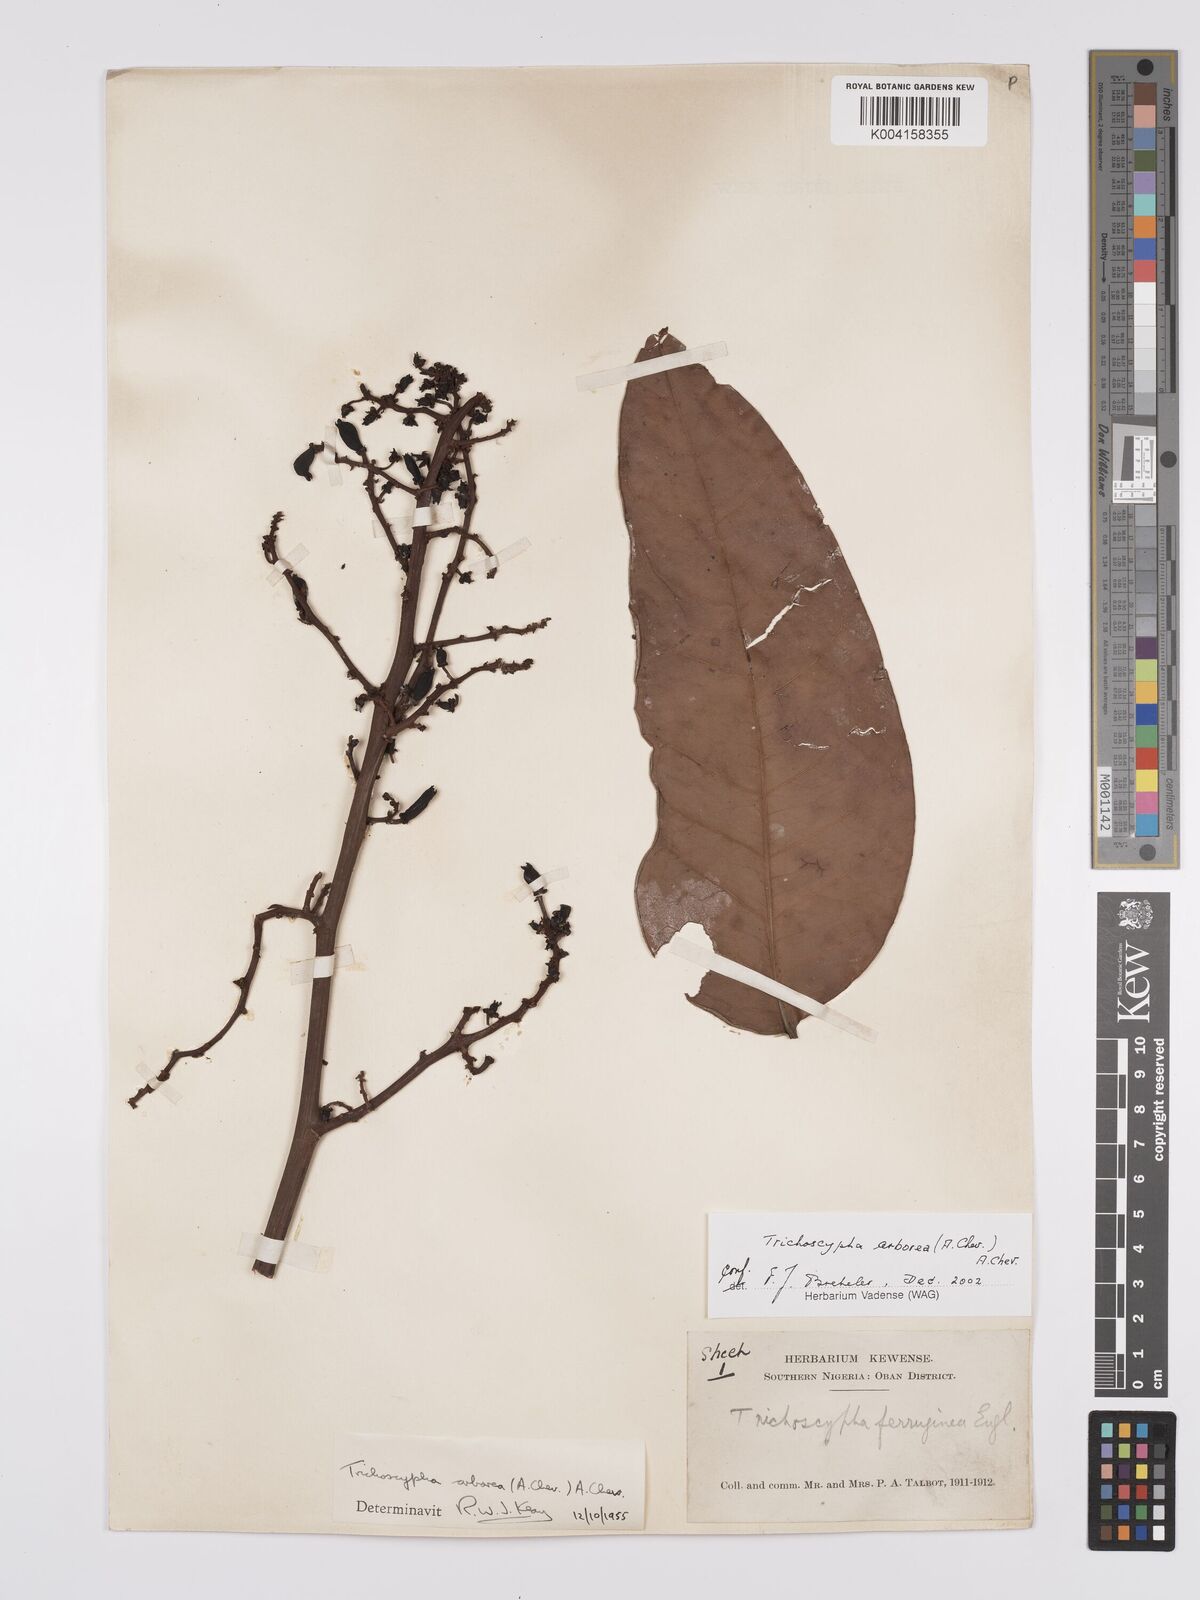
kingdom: Plantae
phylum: Tracheophyta
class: Magnoliopsida
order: Sapindales
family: Anacardiaceae
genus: Trichoscypha
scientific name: Trichoscypha arborea
